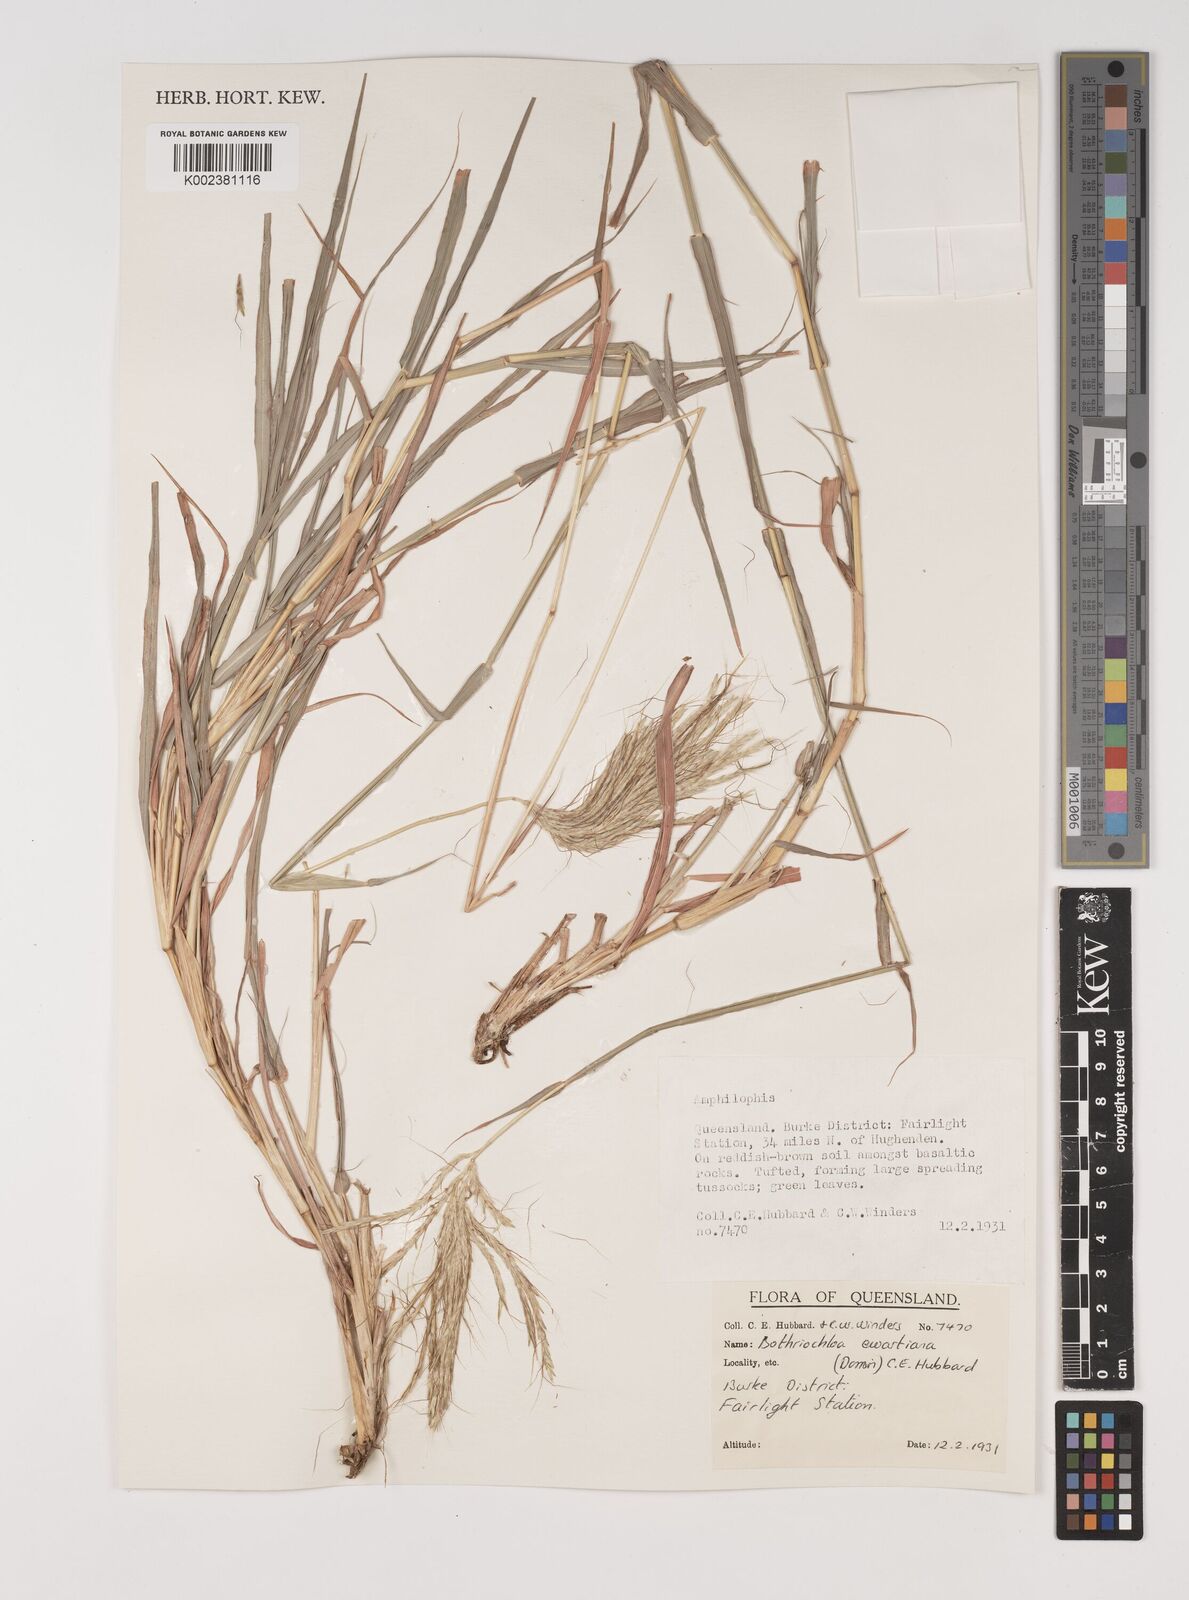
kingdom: Plantae
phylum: Tracheophyta
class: Liliopsida
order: Poales
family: Poaceae
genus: Bothriochloa
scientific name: Bothriochloa ewartiana
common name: Desert-bluegrass
